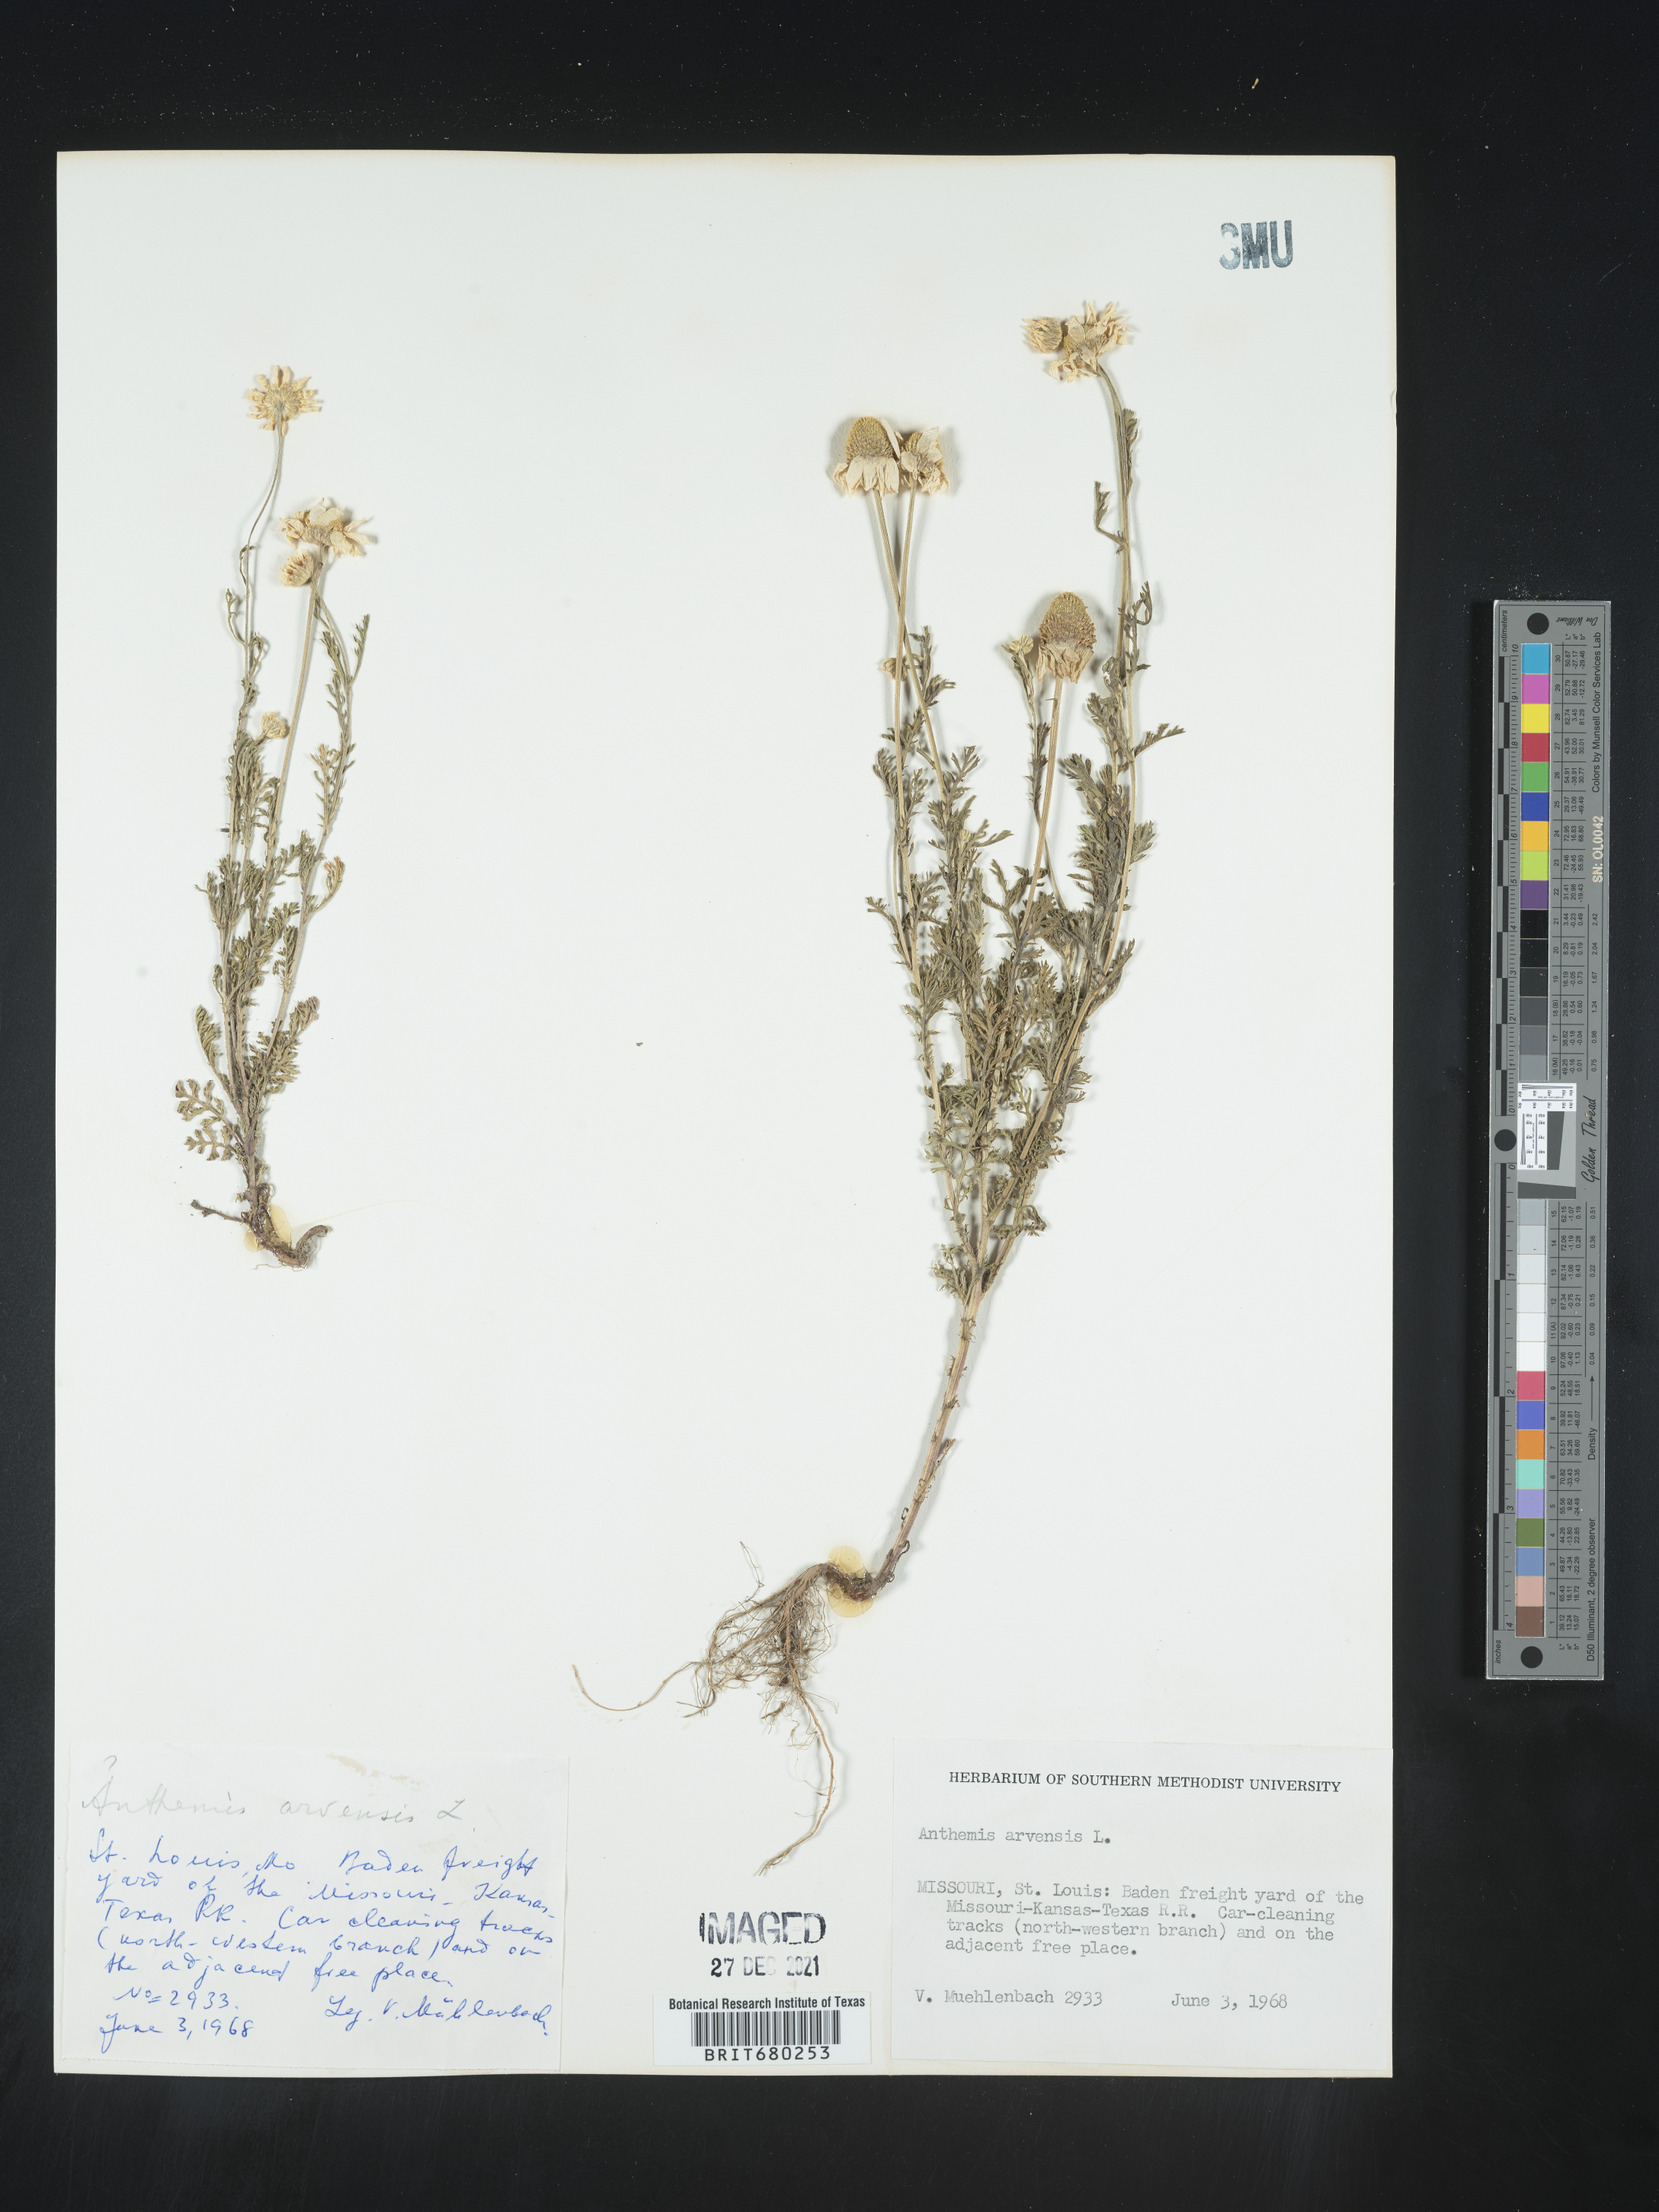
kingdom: Plantae
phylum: Tracheophyta
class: Magnoliopsida
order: Asterales
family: Asteraceae
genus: Anthemis
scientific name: Anthemis arvensis
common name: Corn chamomile
